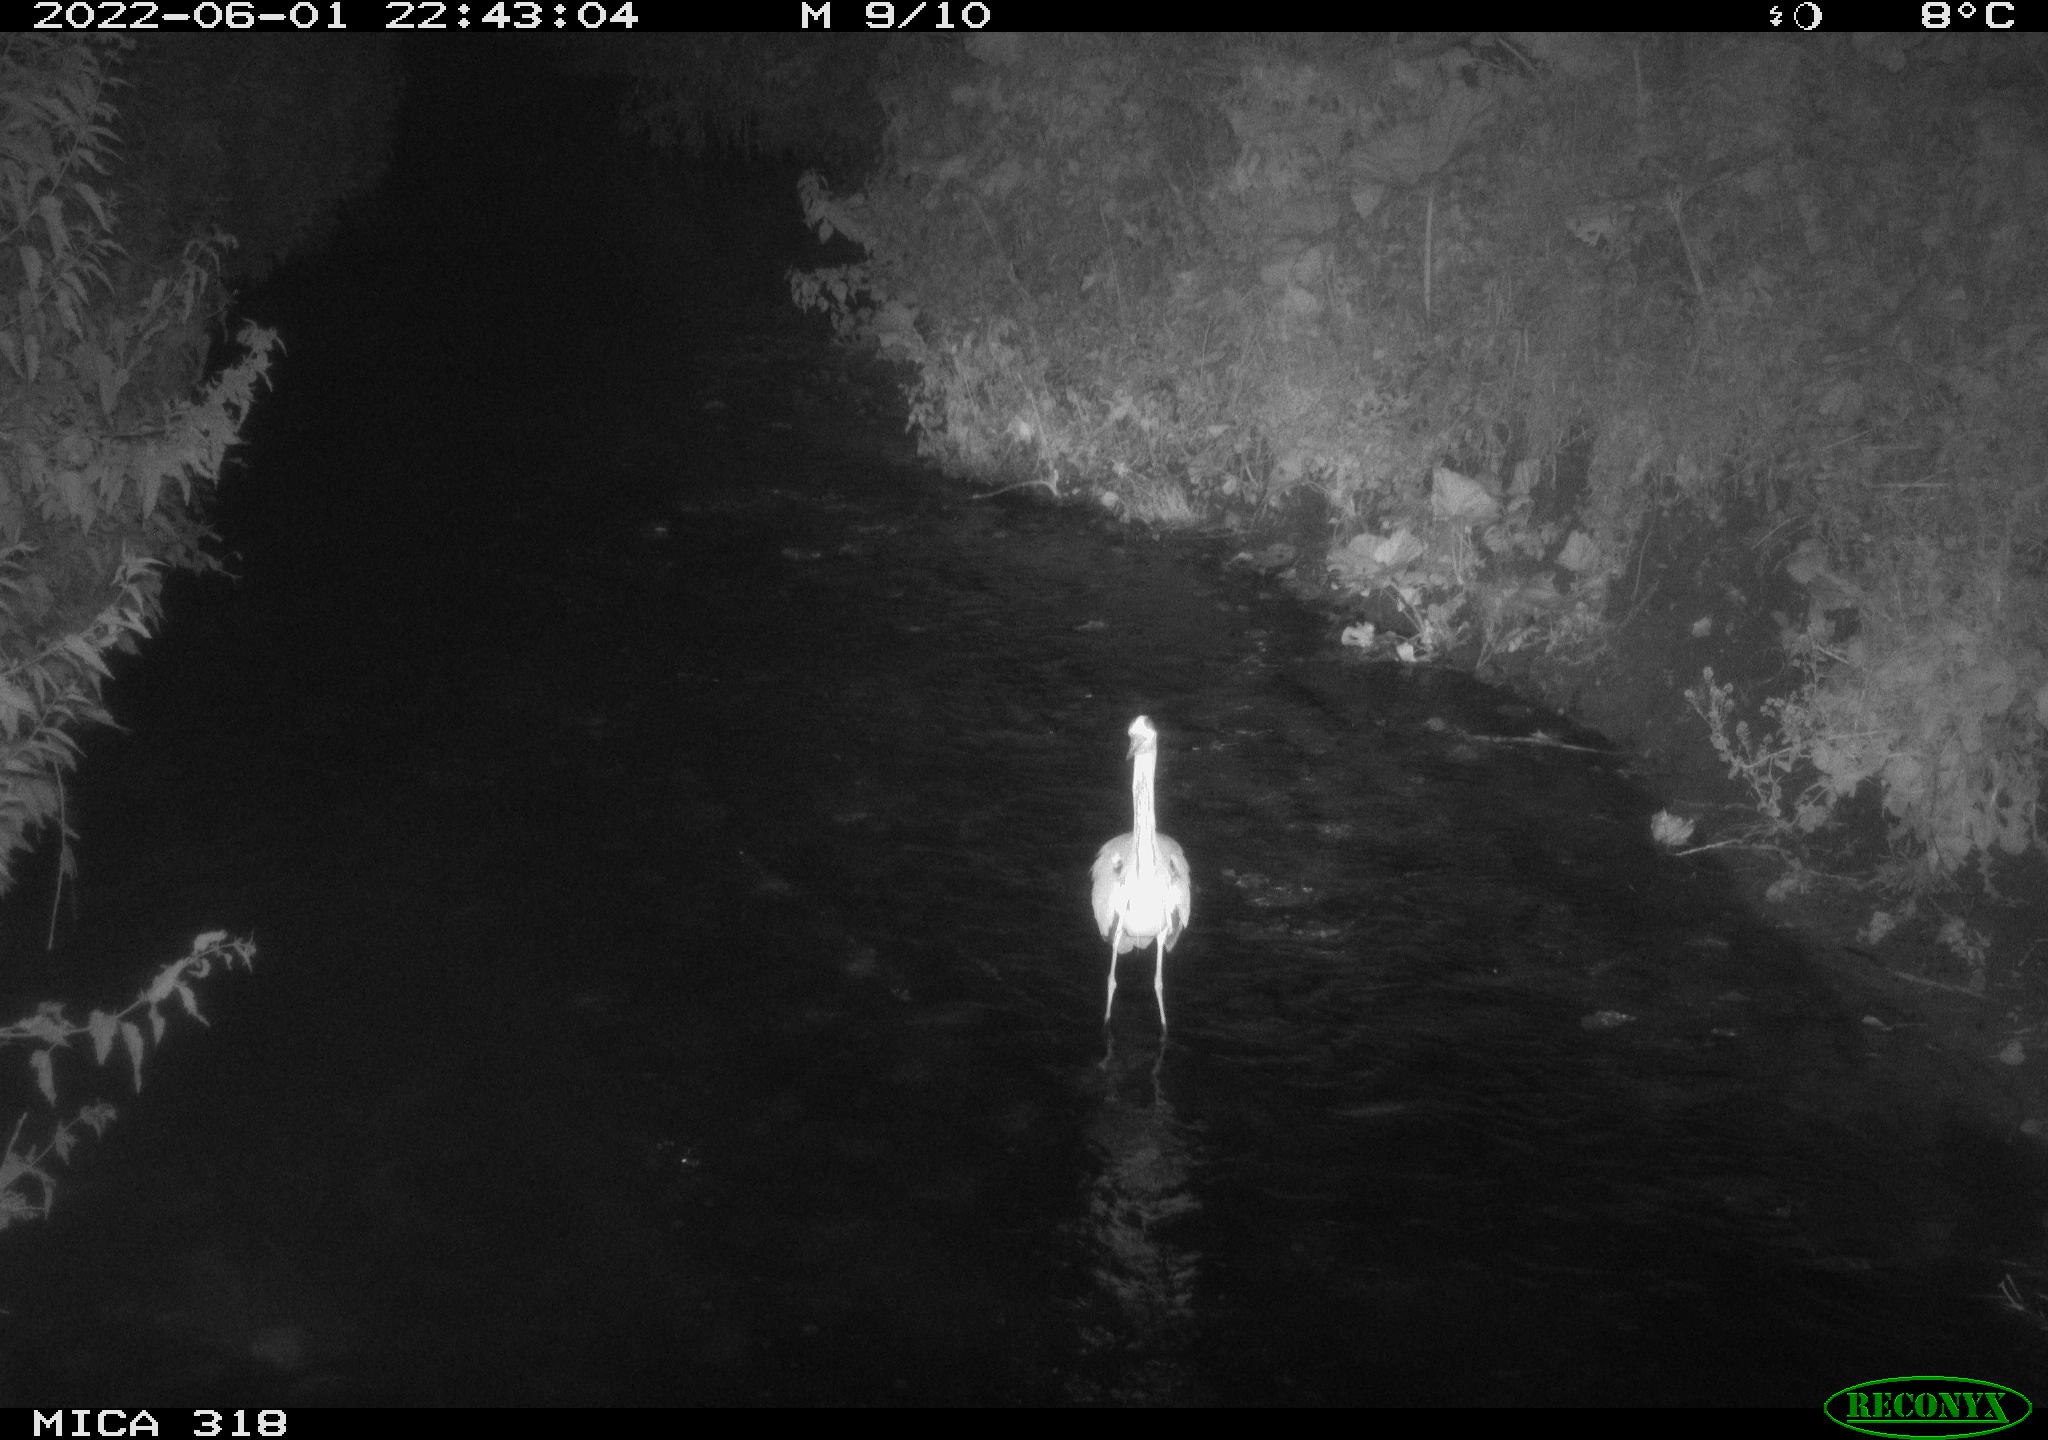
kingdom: Animalia
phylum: Chordata
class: Aves
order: Pelecaniformes
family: Ardeidae
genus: Ardea
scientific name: Ardea cinerea
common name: Grey heron
